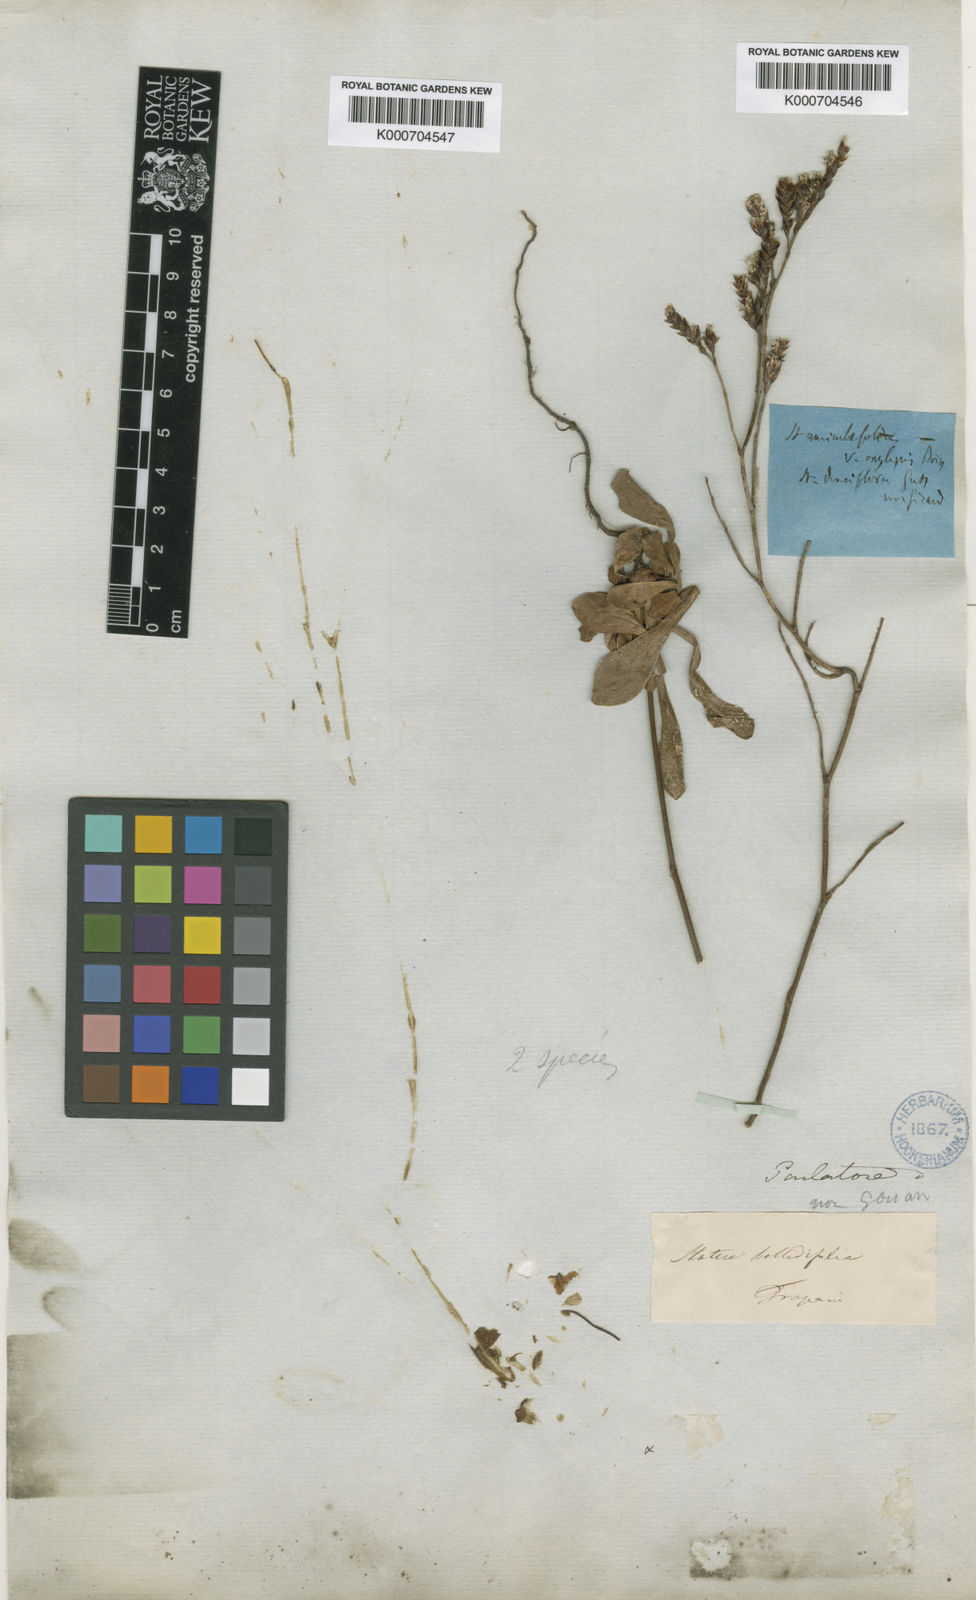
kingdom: Plantae
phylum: Tracheophyta
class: Magnoliopsida
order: Caryophyllales
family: Plumbaginaceae
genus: Limonium
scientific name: Limonium densiflorum
